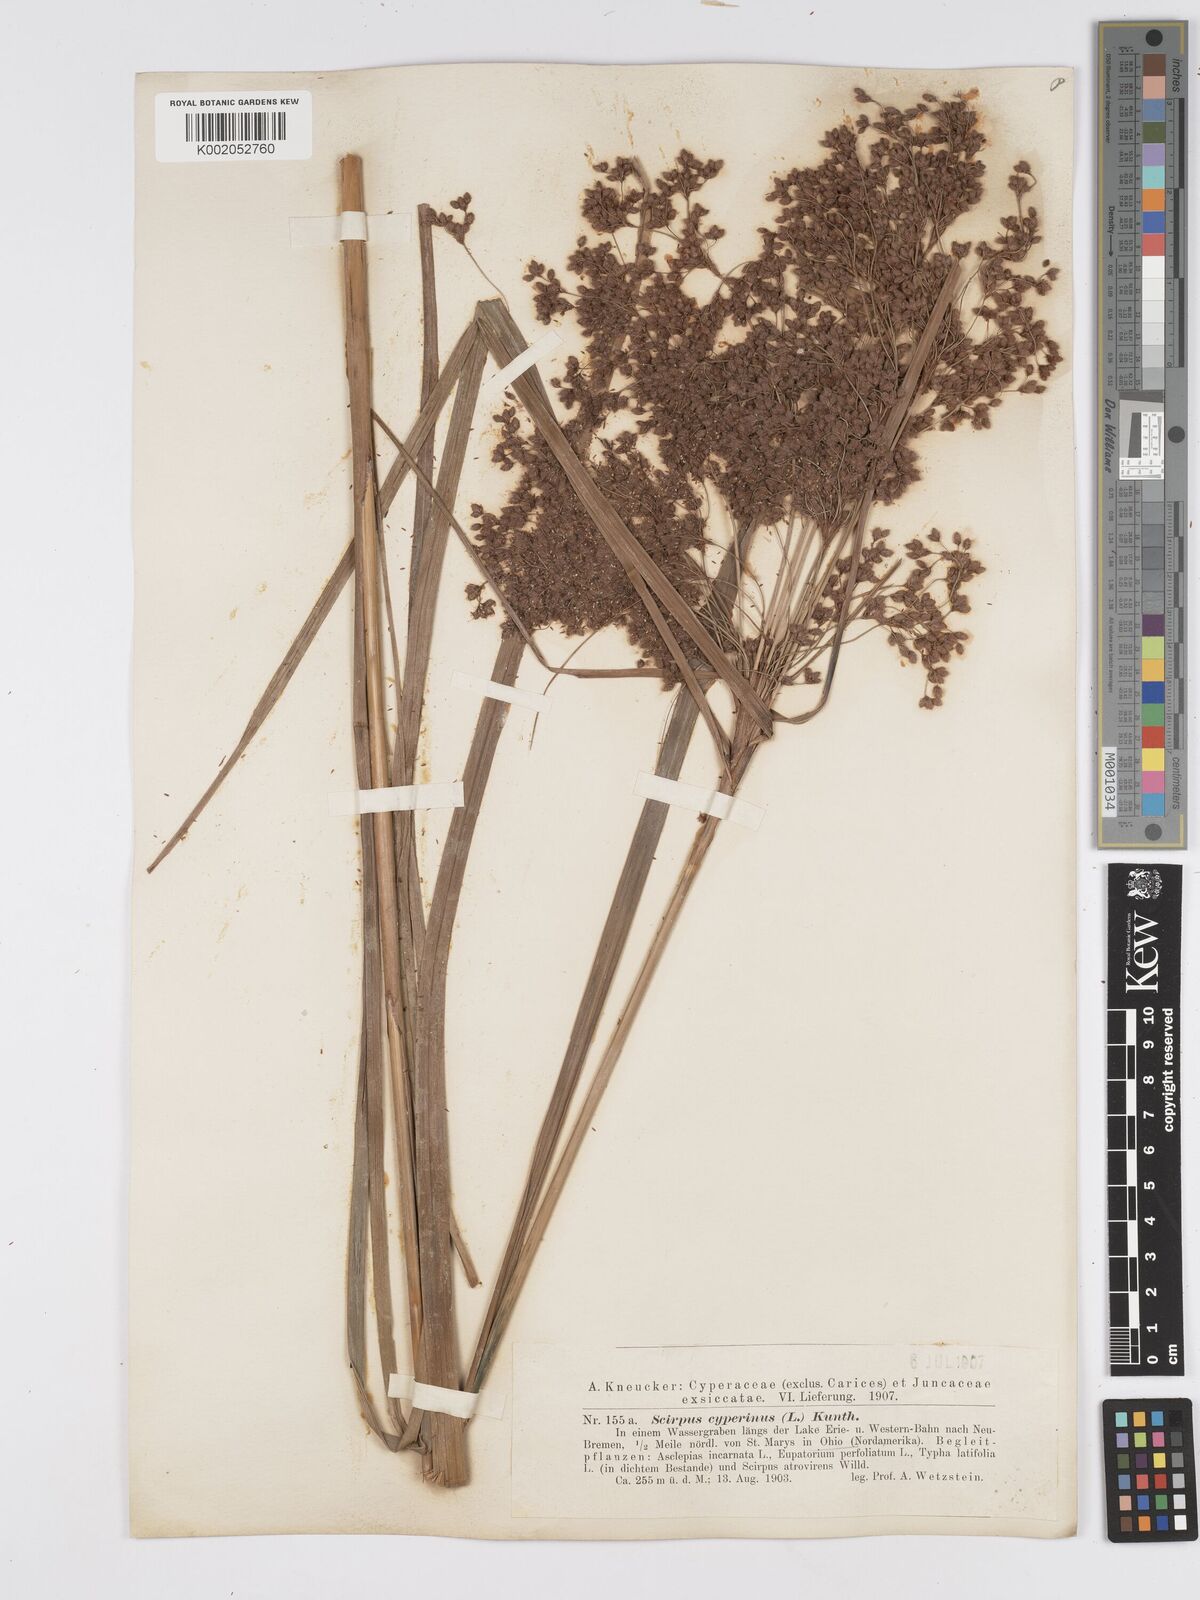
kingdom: Plantae
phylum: Tracheophyta
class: Liliopsida
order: Poales
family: Cyperaceae
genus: Scirpus
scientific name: Scirpus cyperinus
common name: Black-sheathed bulrush
